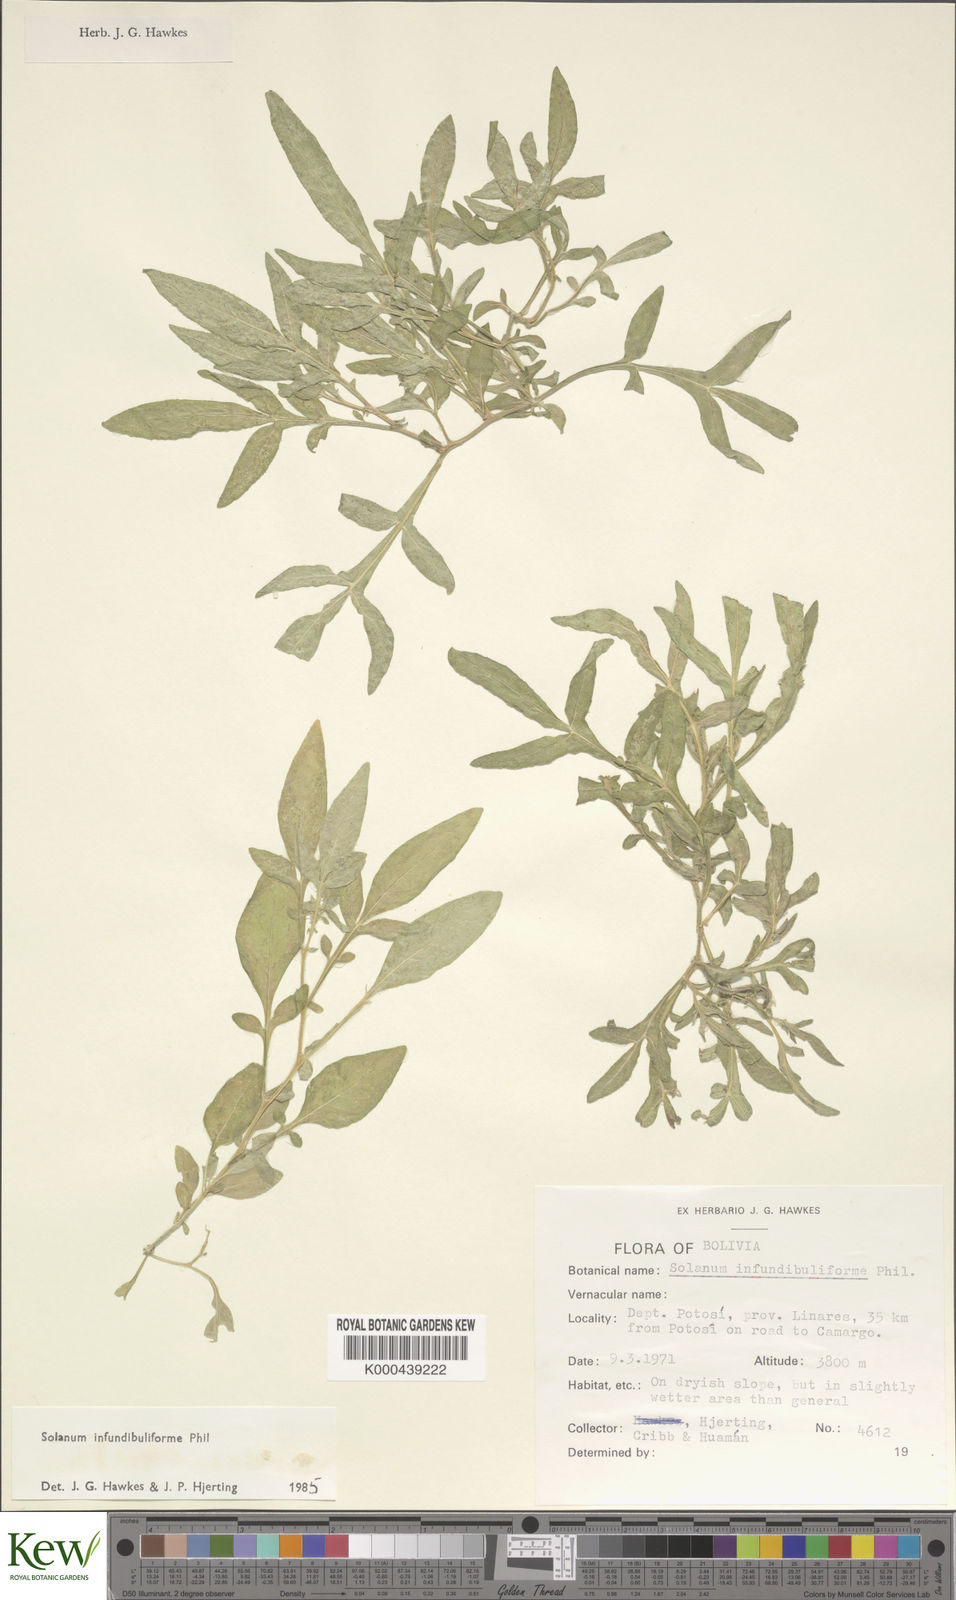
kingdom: Plantae
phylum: Tracheophyta
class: Magnoliopsida
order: Solanales
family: Solanaceae
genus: Solanum
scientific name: Solanum infundibuliforme
